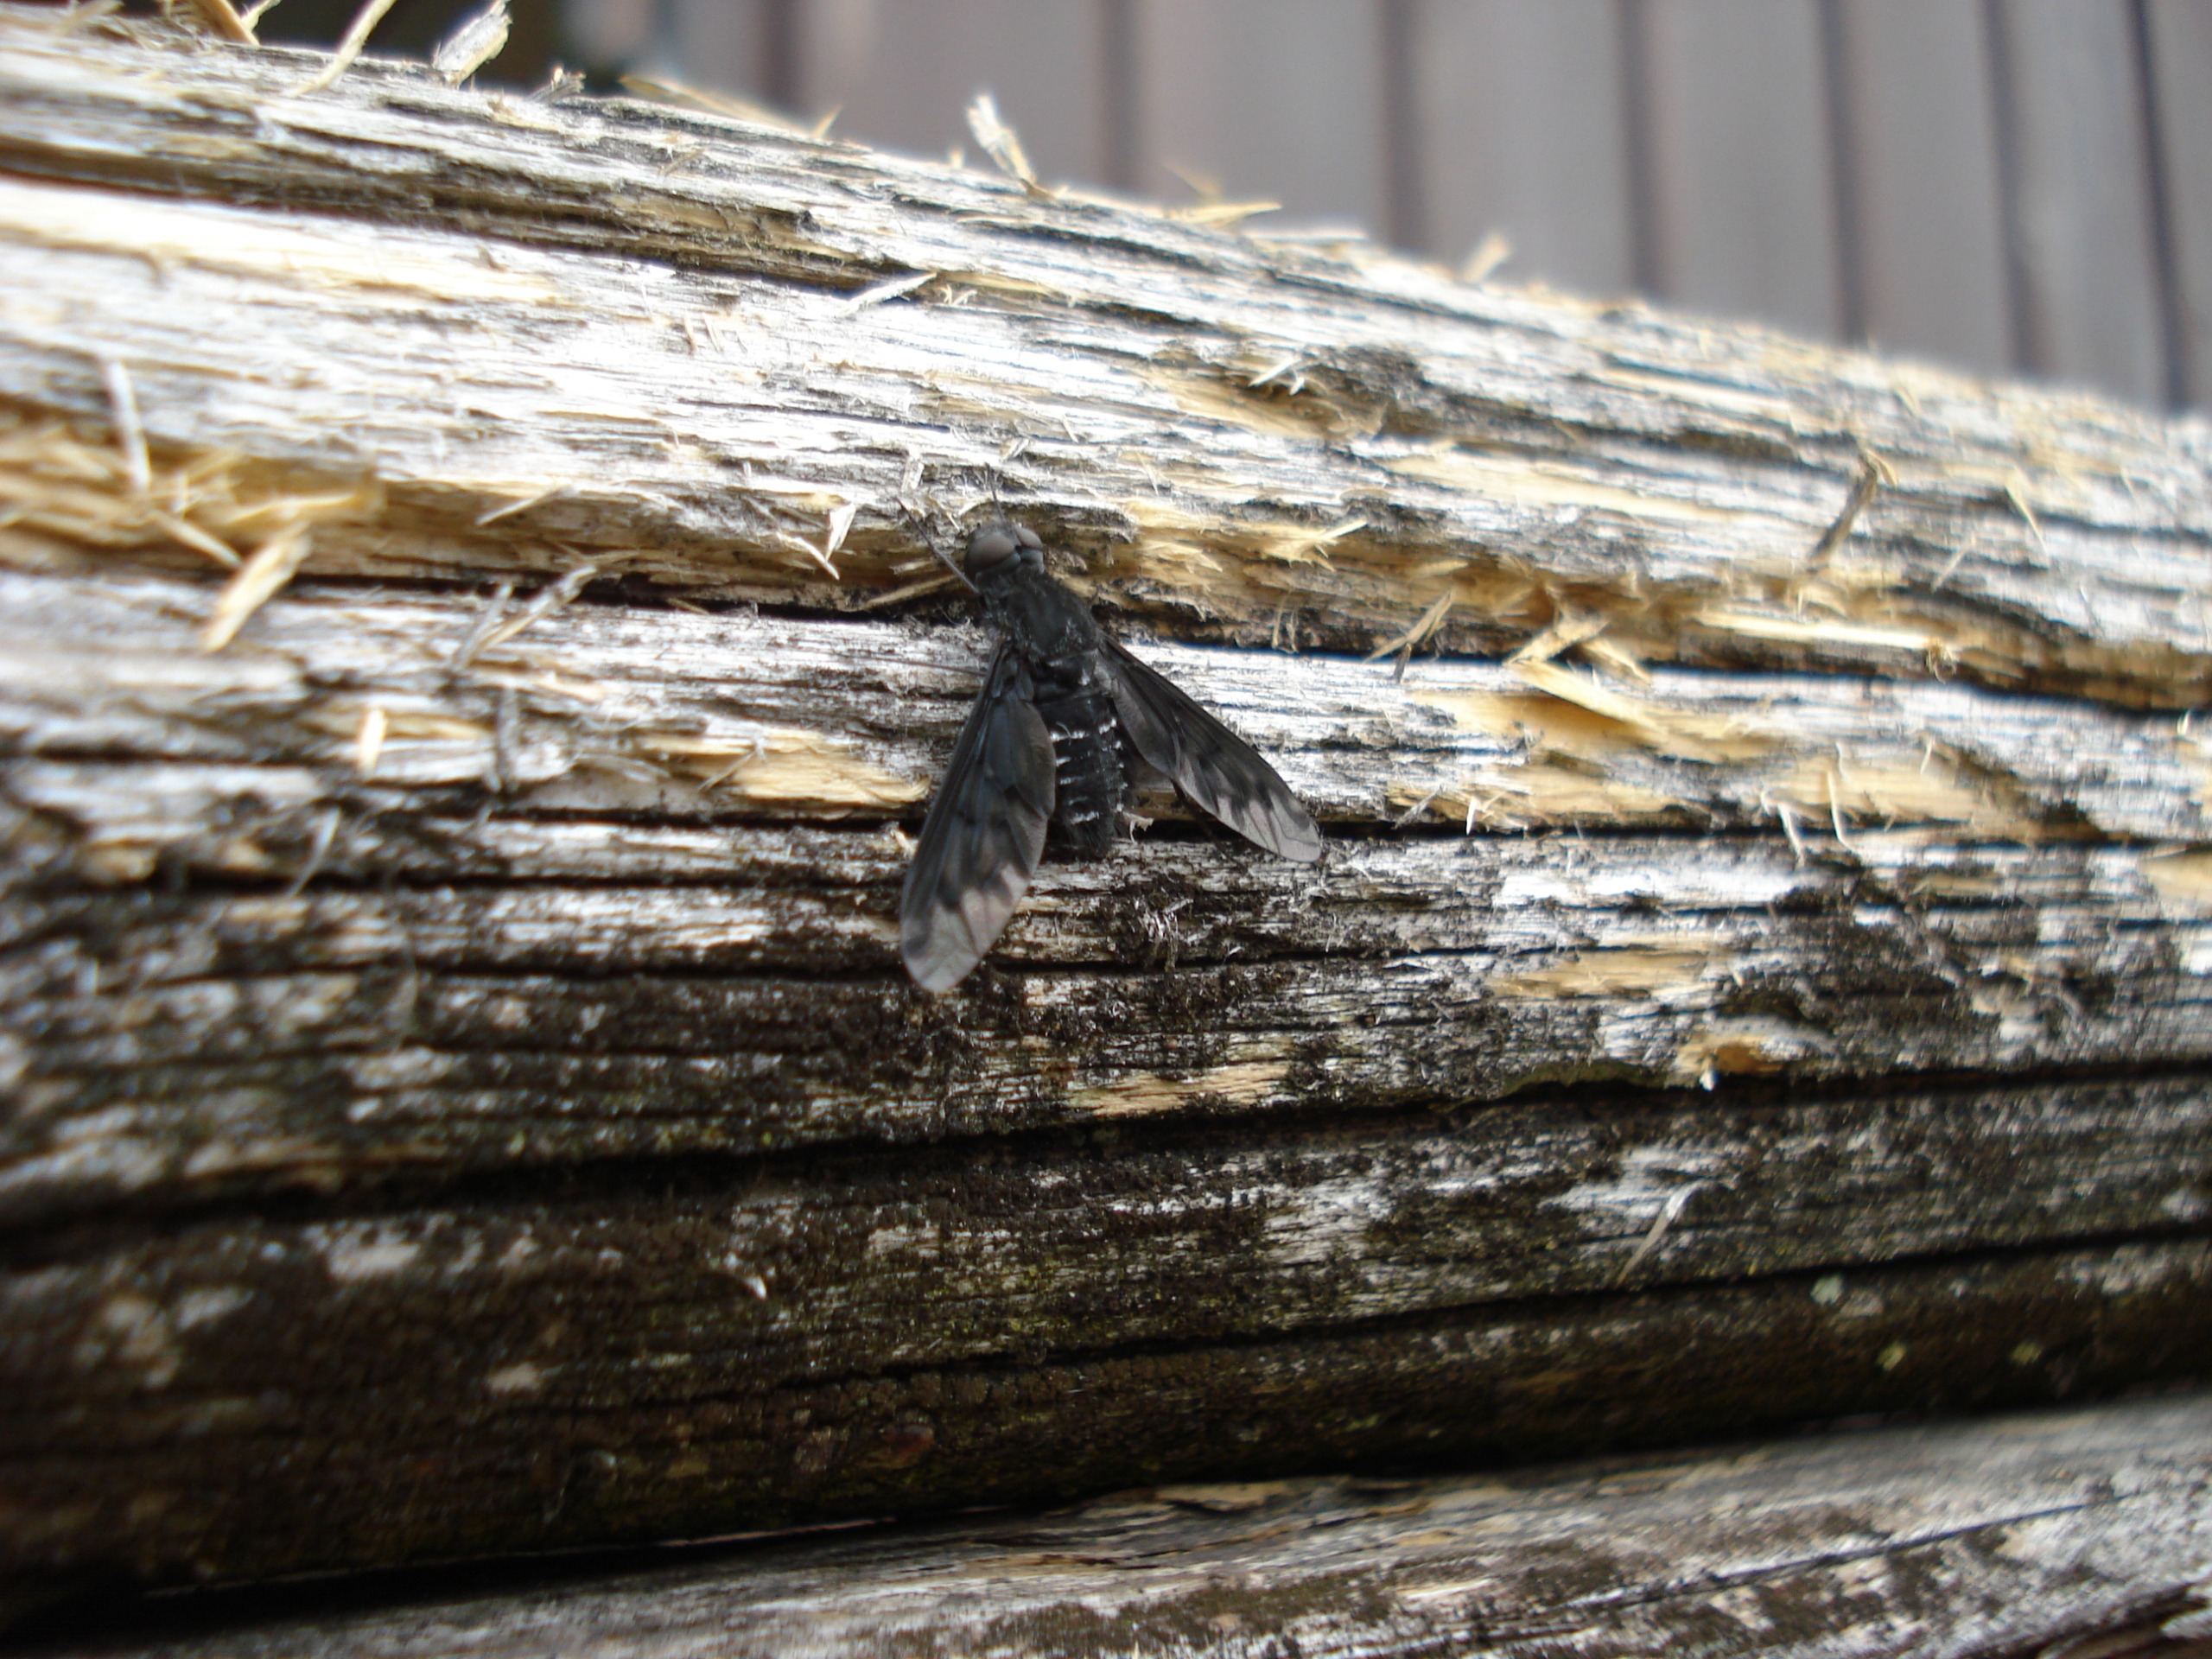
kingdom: Animalia
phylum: Arthropoda
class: Insecta
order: Diptera
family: Bombyliidae
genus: Anthrax
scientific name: Anthrax anthrax
